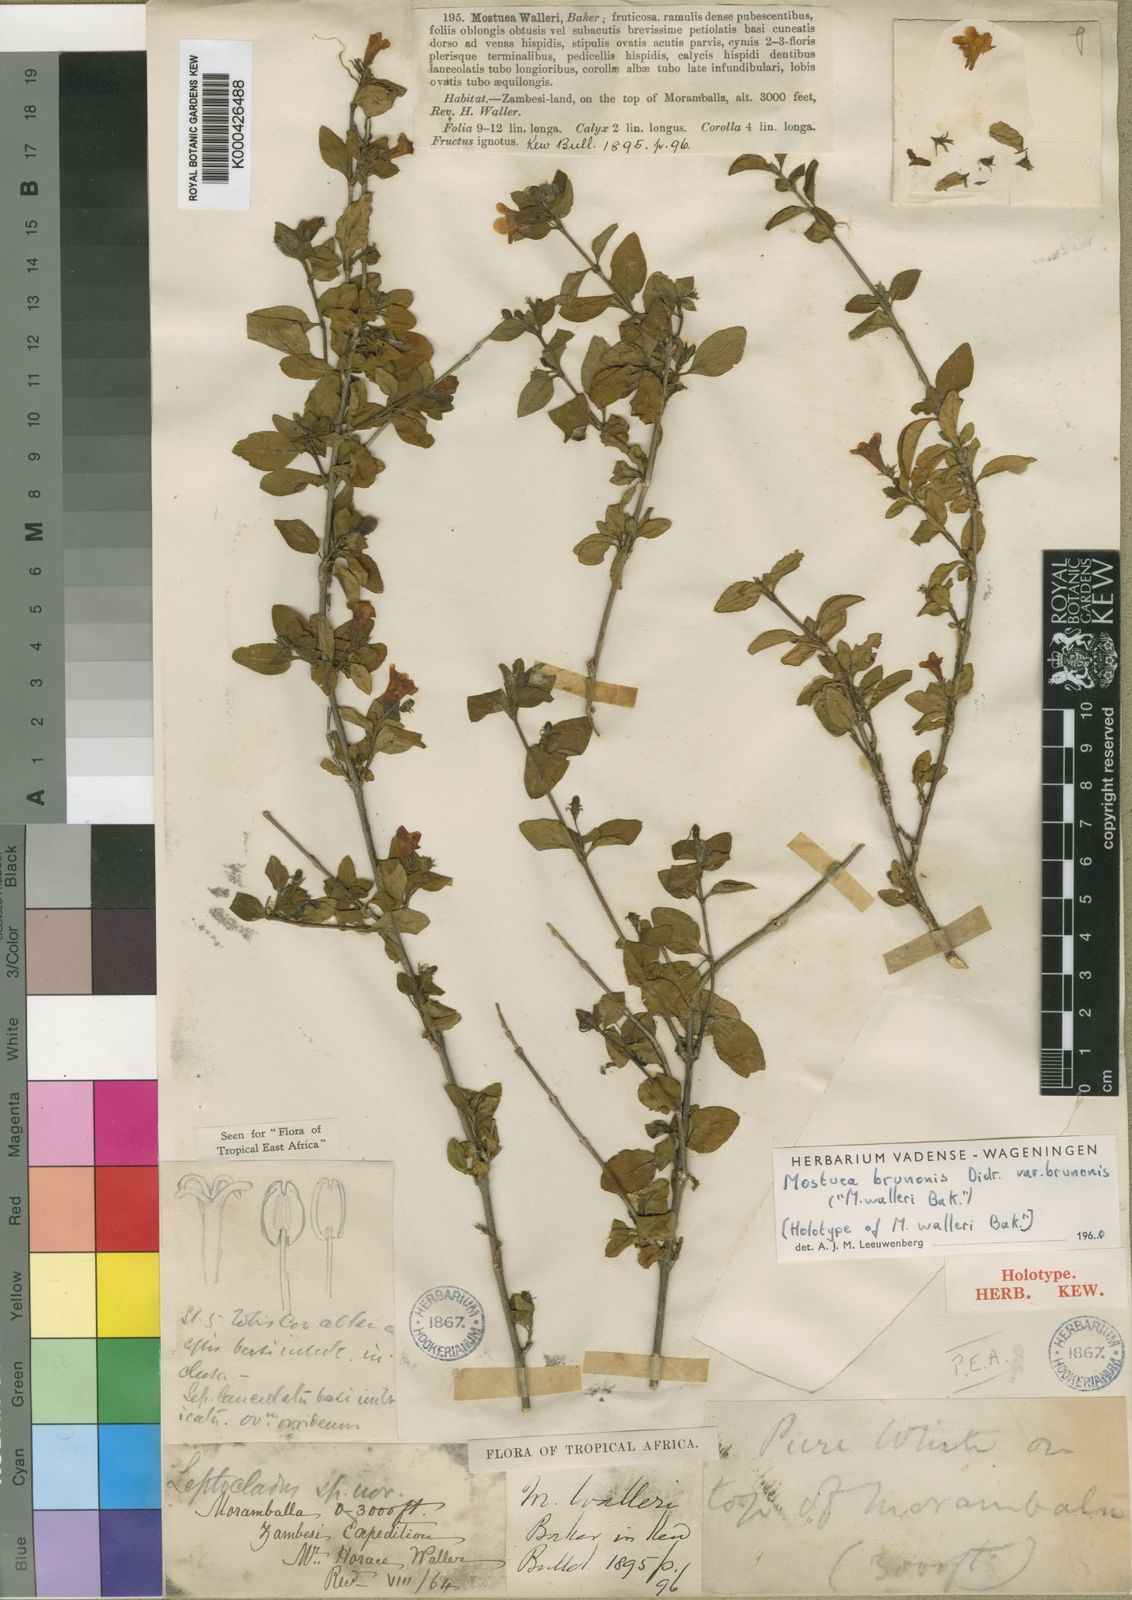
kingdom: Plantae
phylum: Tracheophyta
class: Magnoliopsida
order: Gentianales
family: Gelsemiaceae
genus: Mostuea
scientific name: Mostuea brunonis
